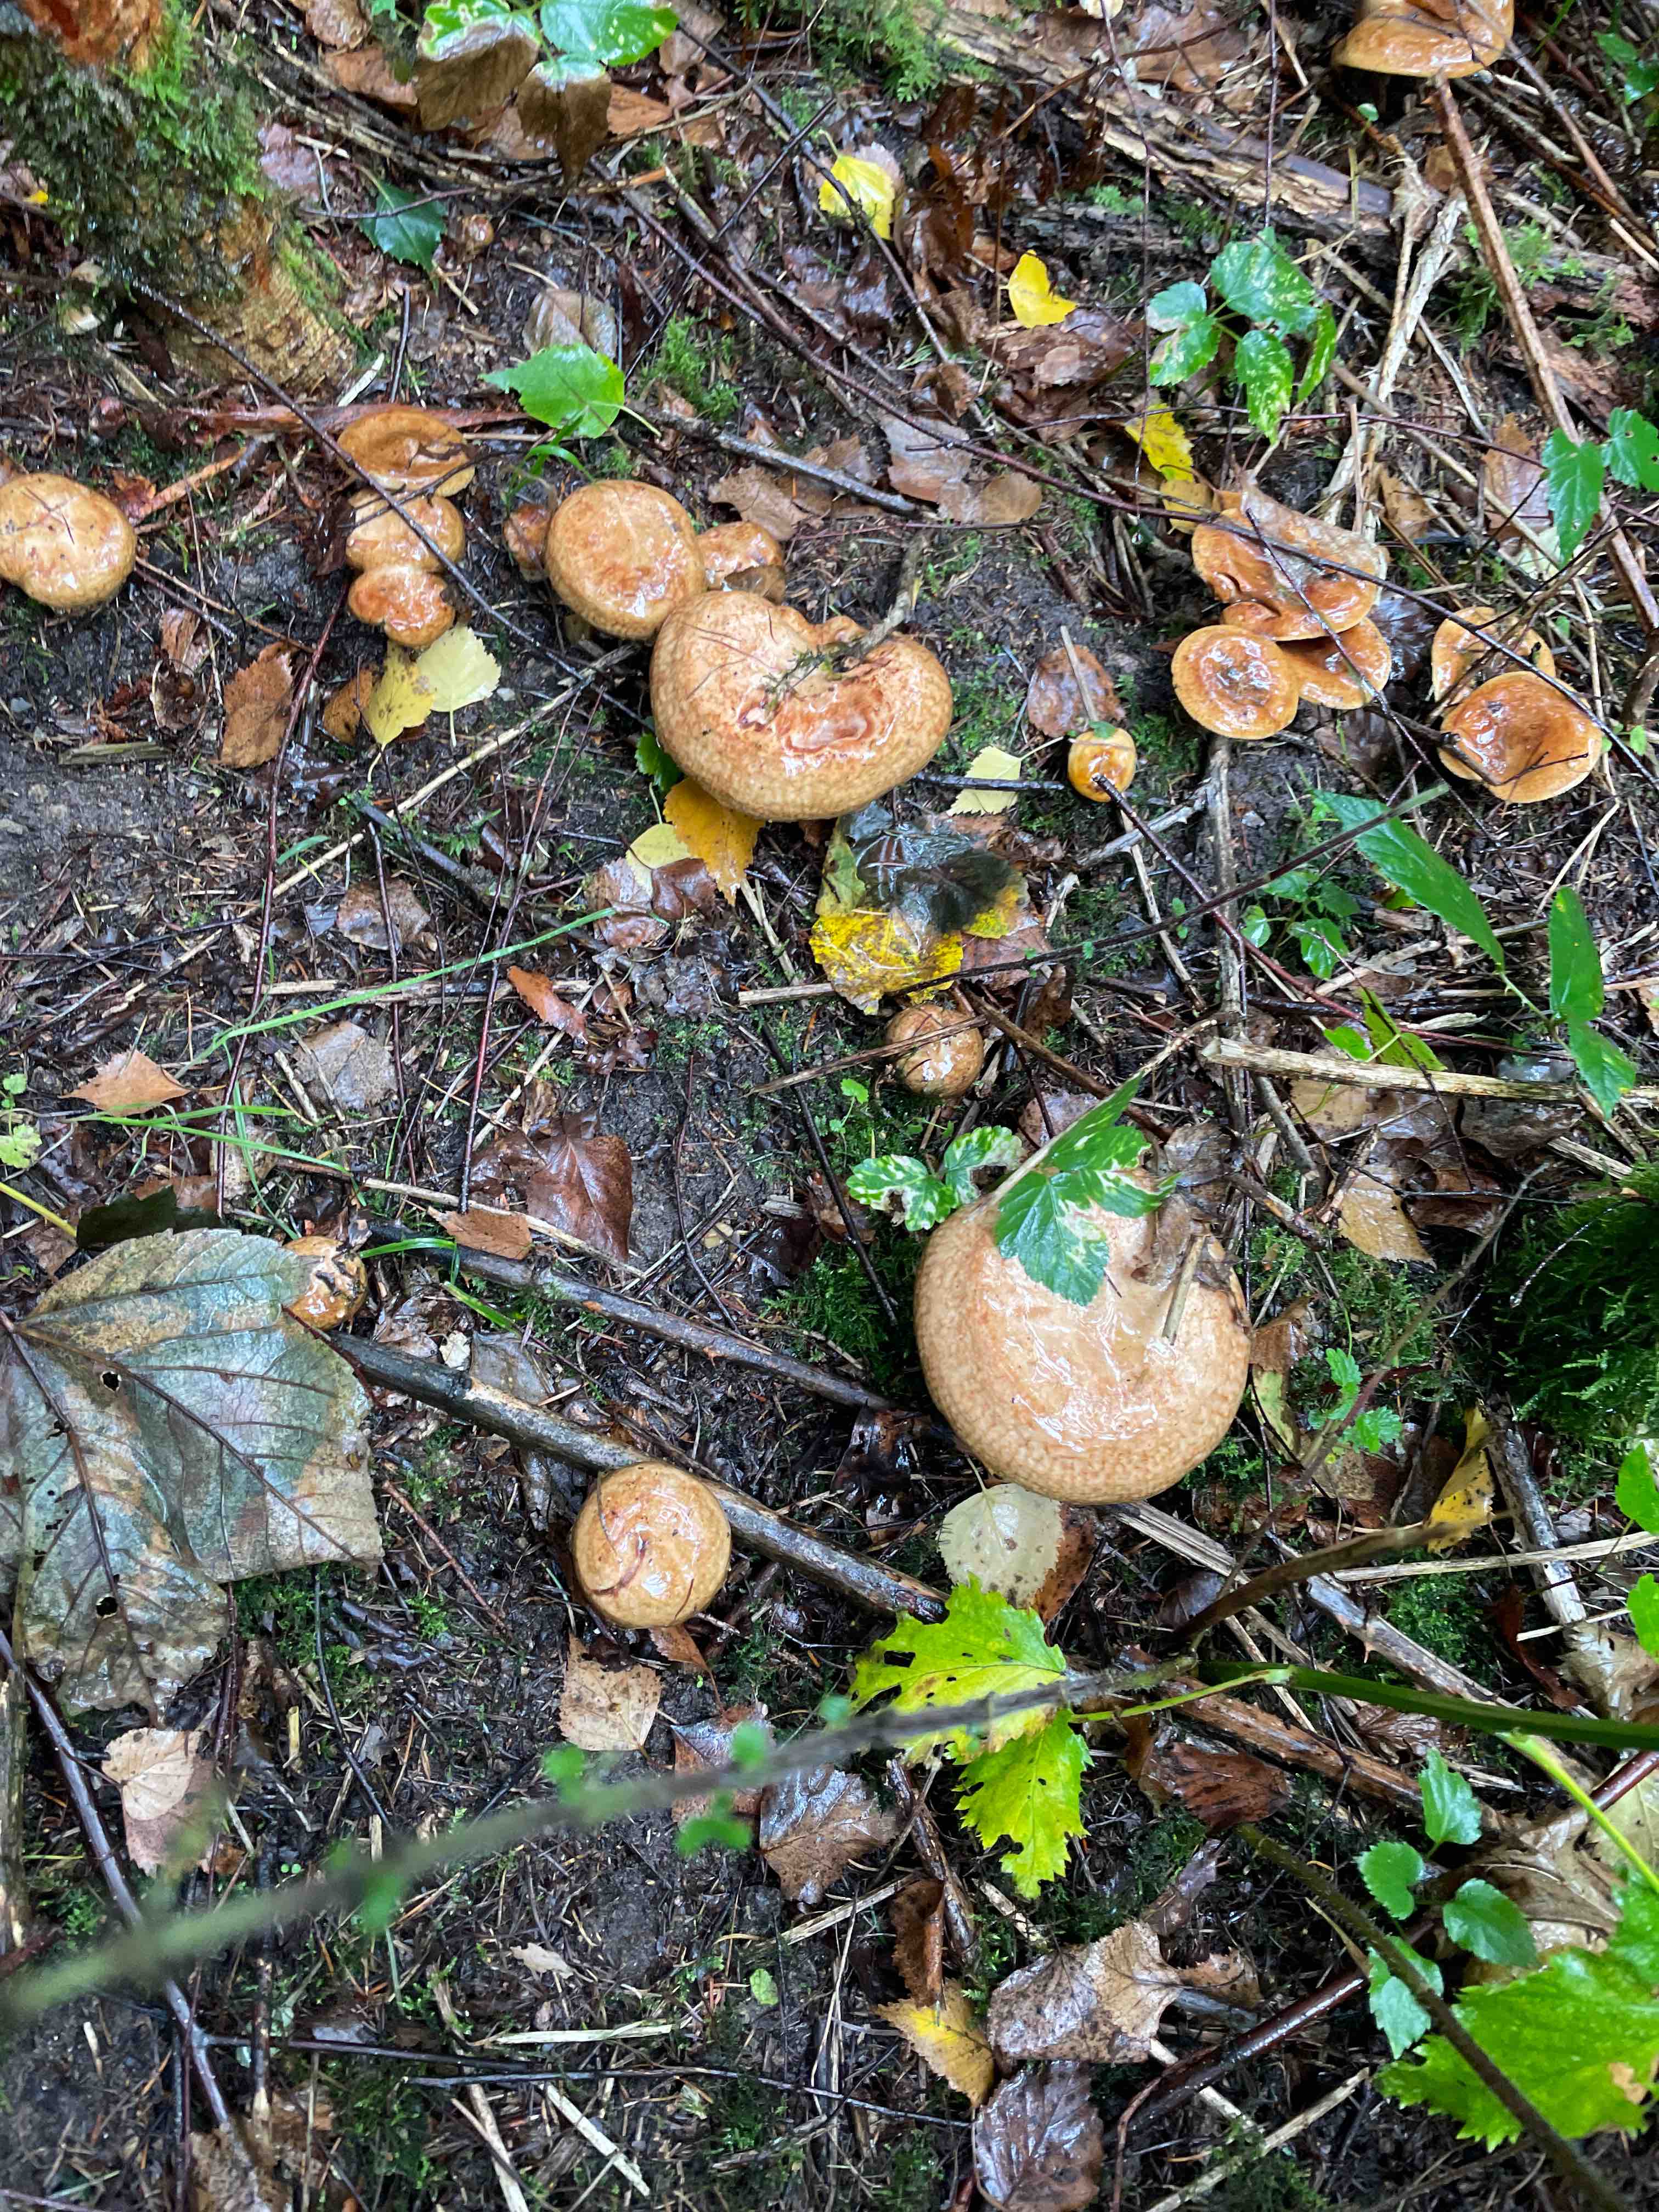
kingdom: Fungi
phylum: Basidiomycota
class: Agaricomycetes
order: Boletales
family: Paxillaceae
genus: Paxillus
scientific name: Paxillus
